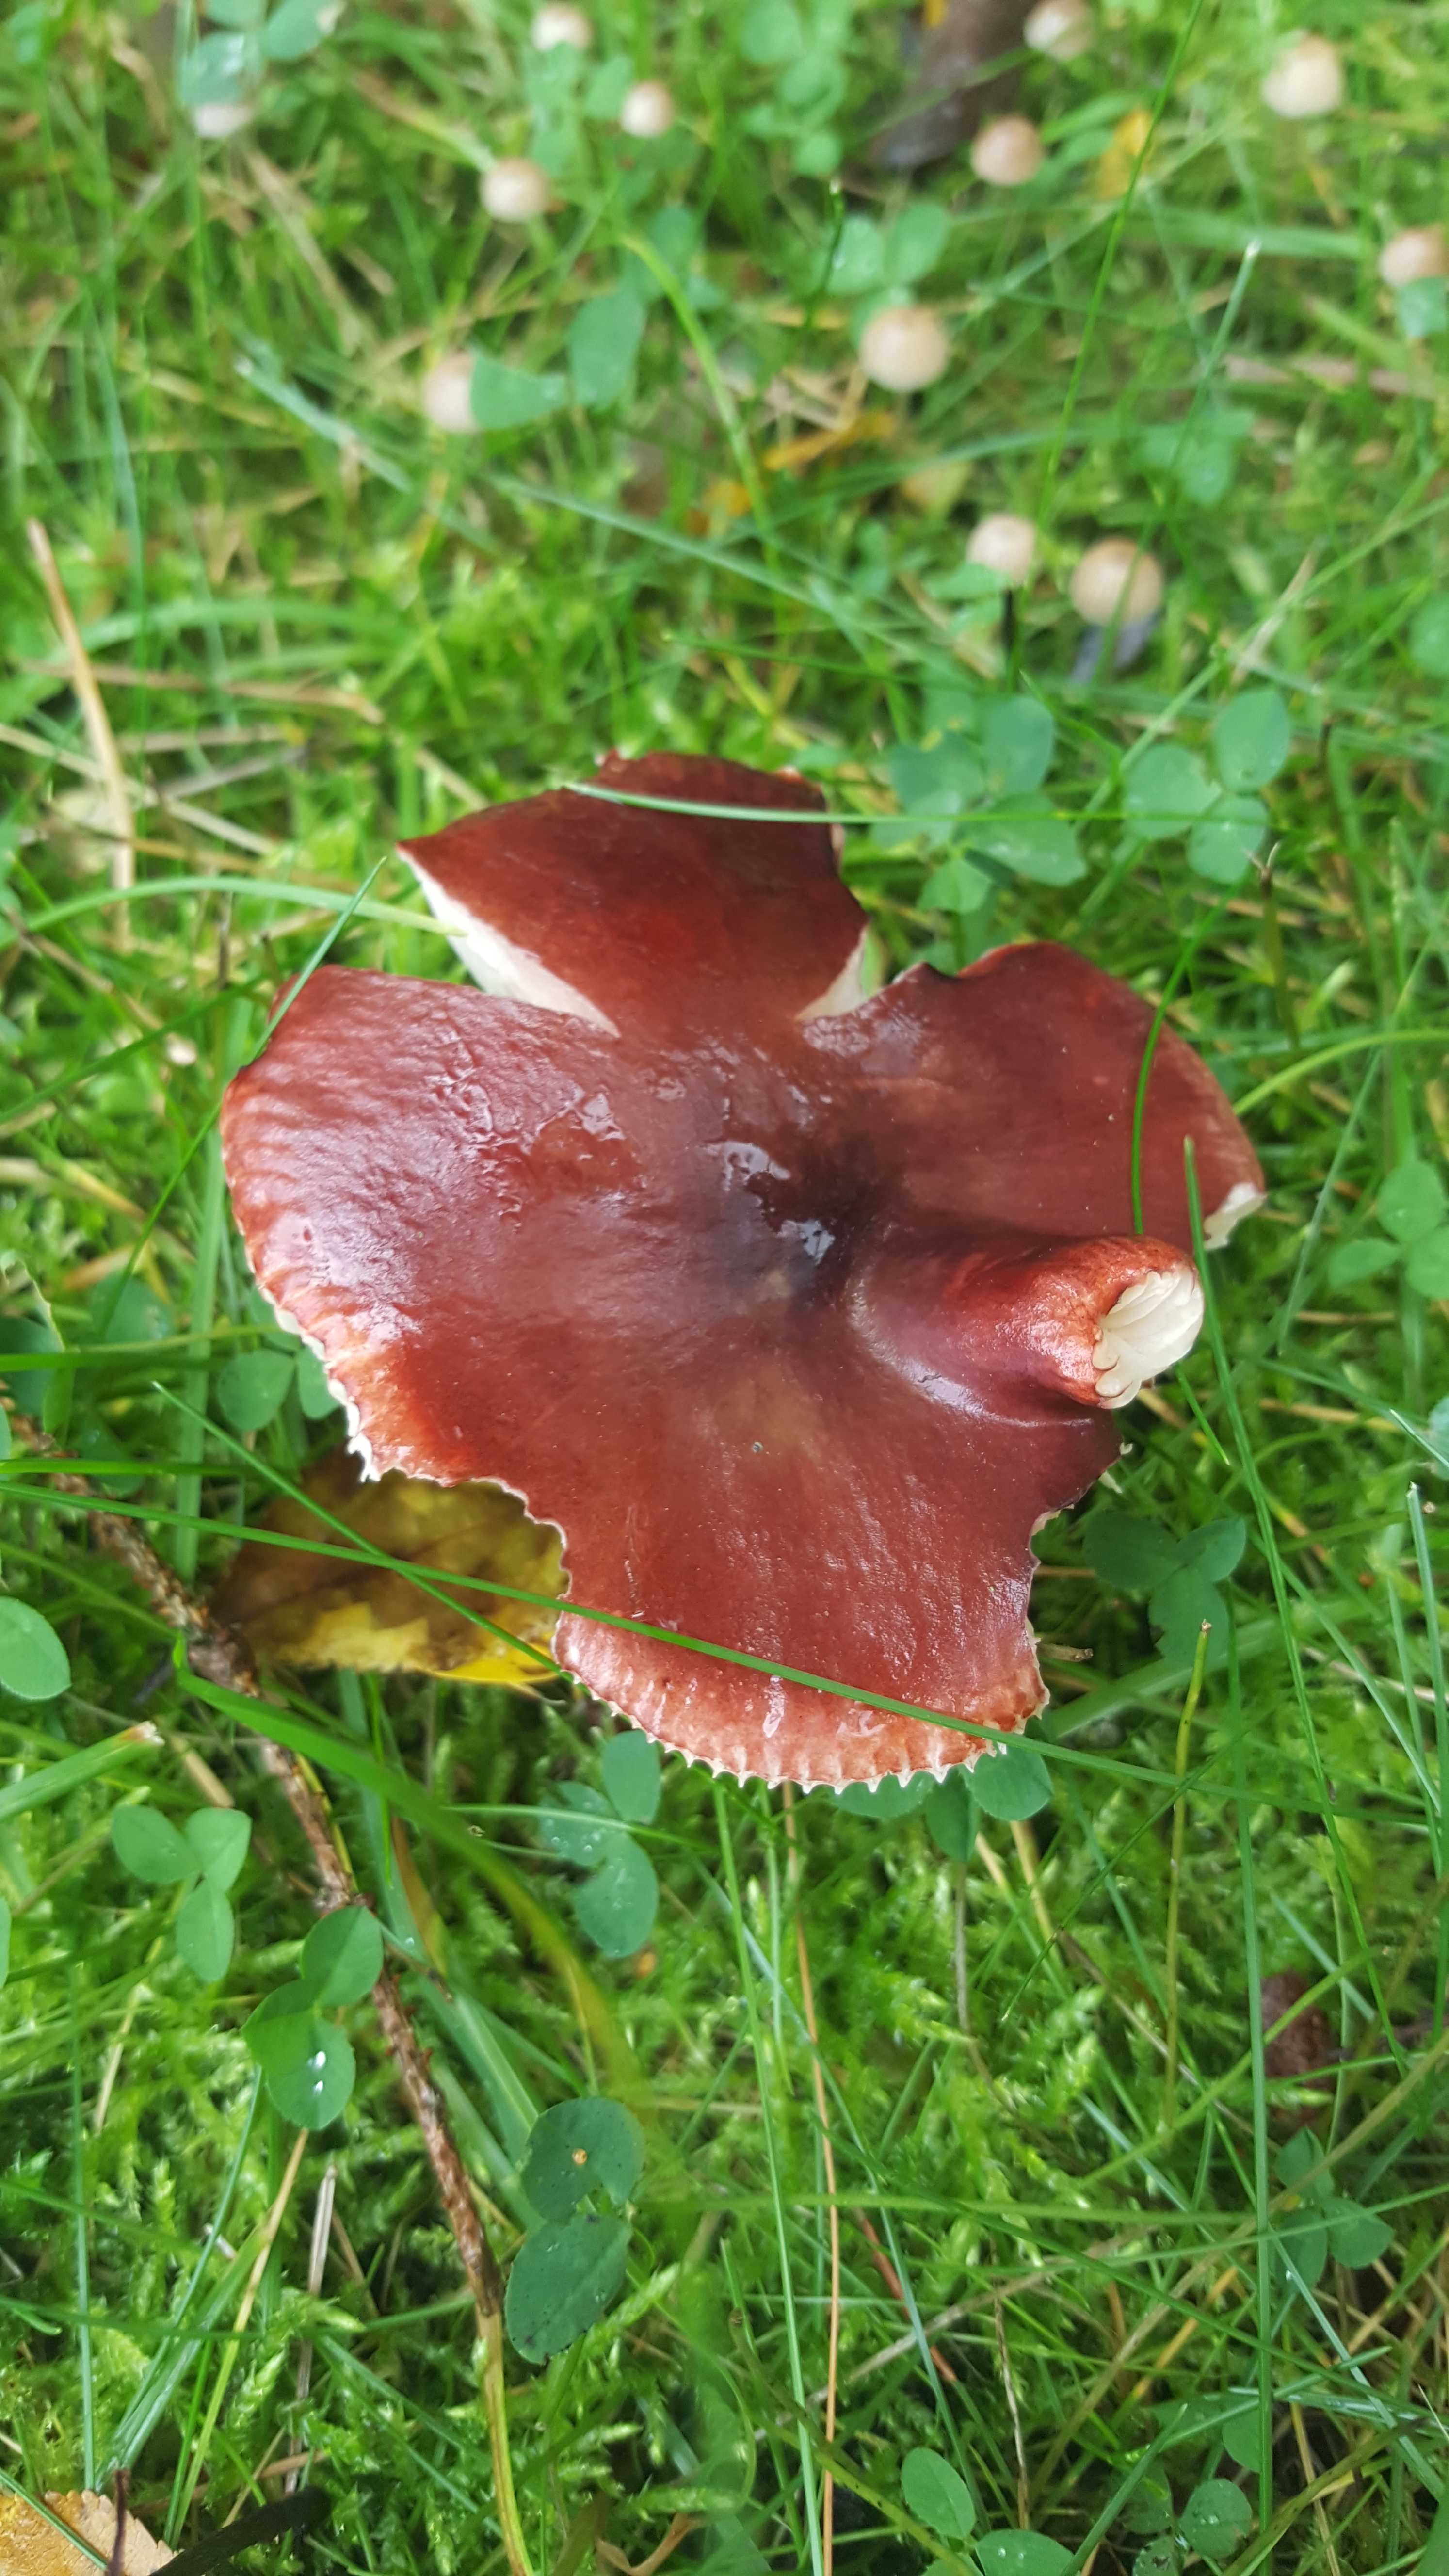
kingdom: Fungi
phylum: Basidiomycota
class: Agaricomycetes
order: Russulales
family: Russulaceae
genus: Russula
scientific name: Russula queletii
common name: Quélets skørhat
